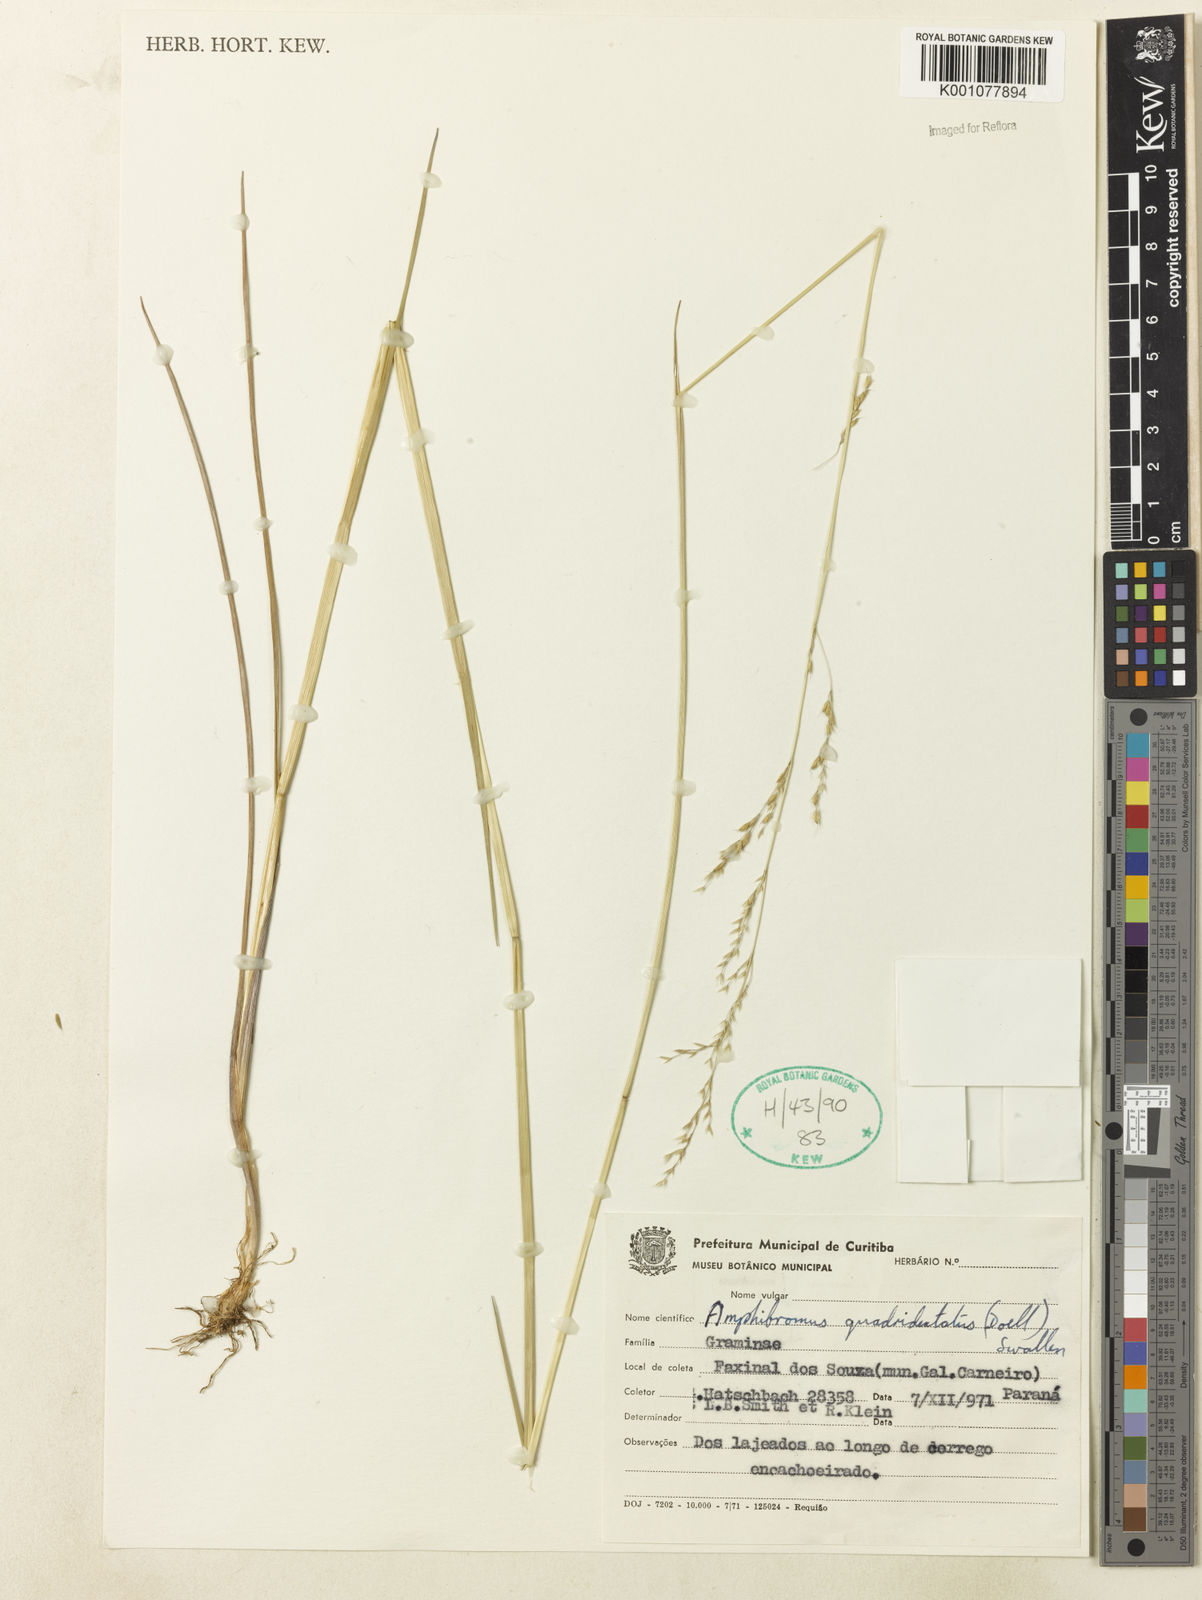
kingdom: Plantae
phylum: Tracheophyta
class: Liliopsida
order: Poales
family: Poaceae
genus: Helictotrichon
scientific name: Helictotrichon
